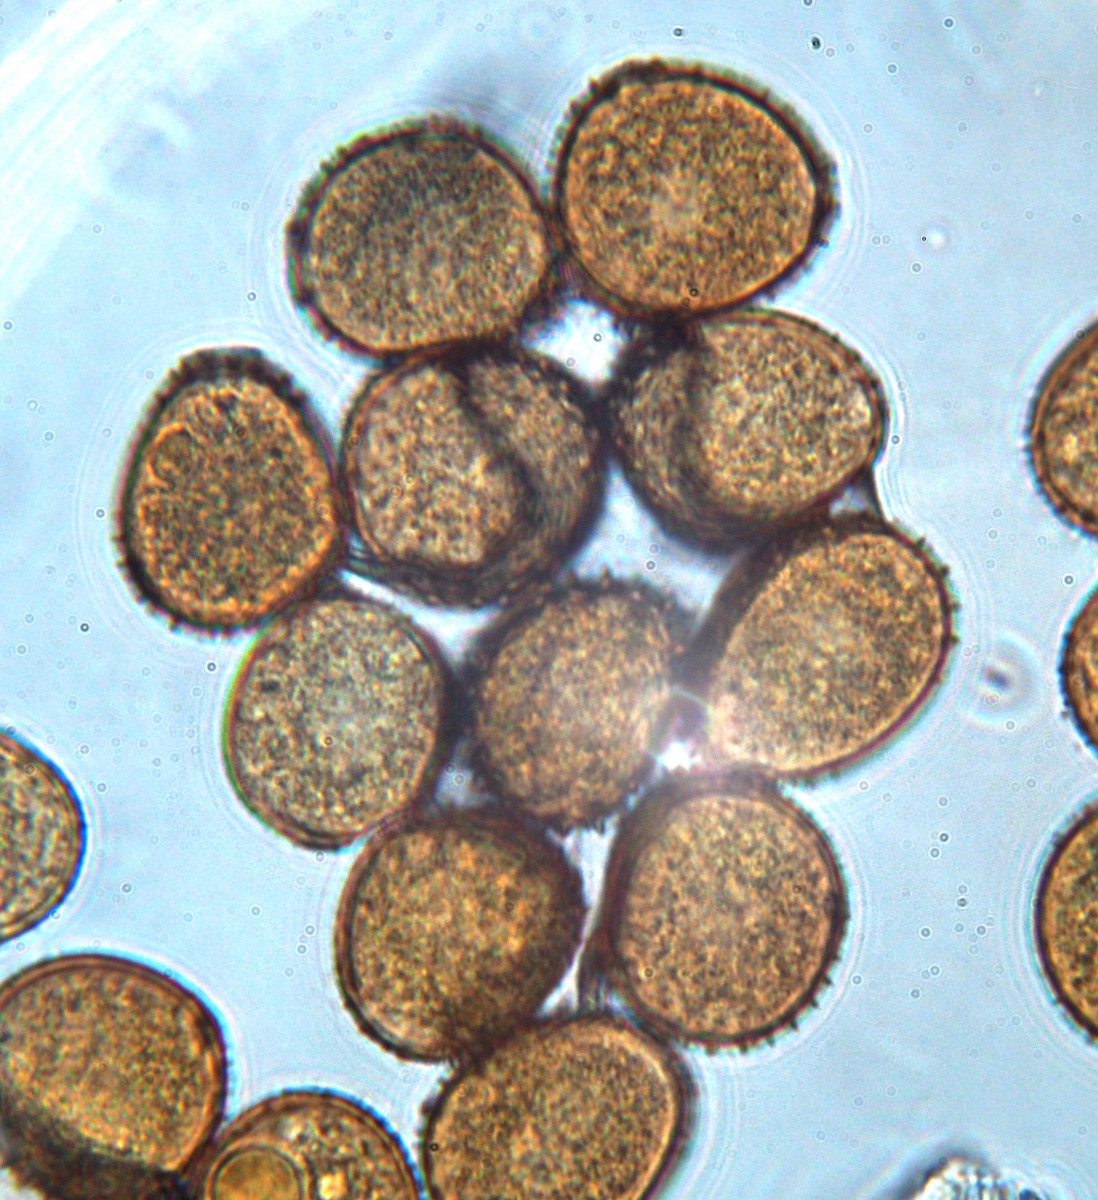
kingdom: Fungi
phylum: Basidiomycota
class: Pucciniomycetes
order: Pucciniales
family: Pucciniaceae
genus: Uromyces
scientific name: Uromyces rumicis
